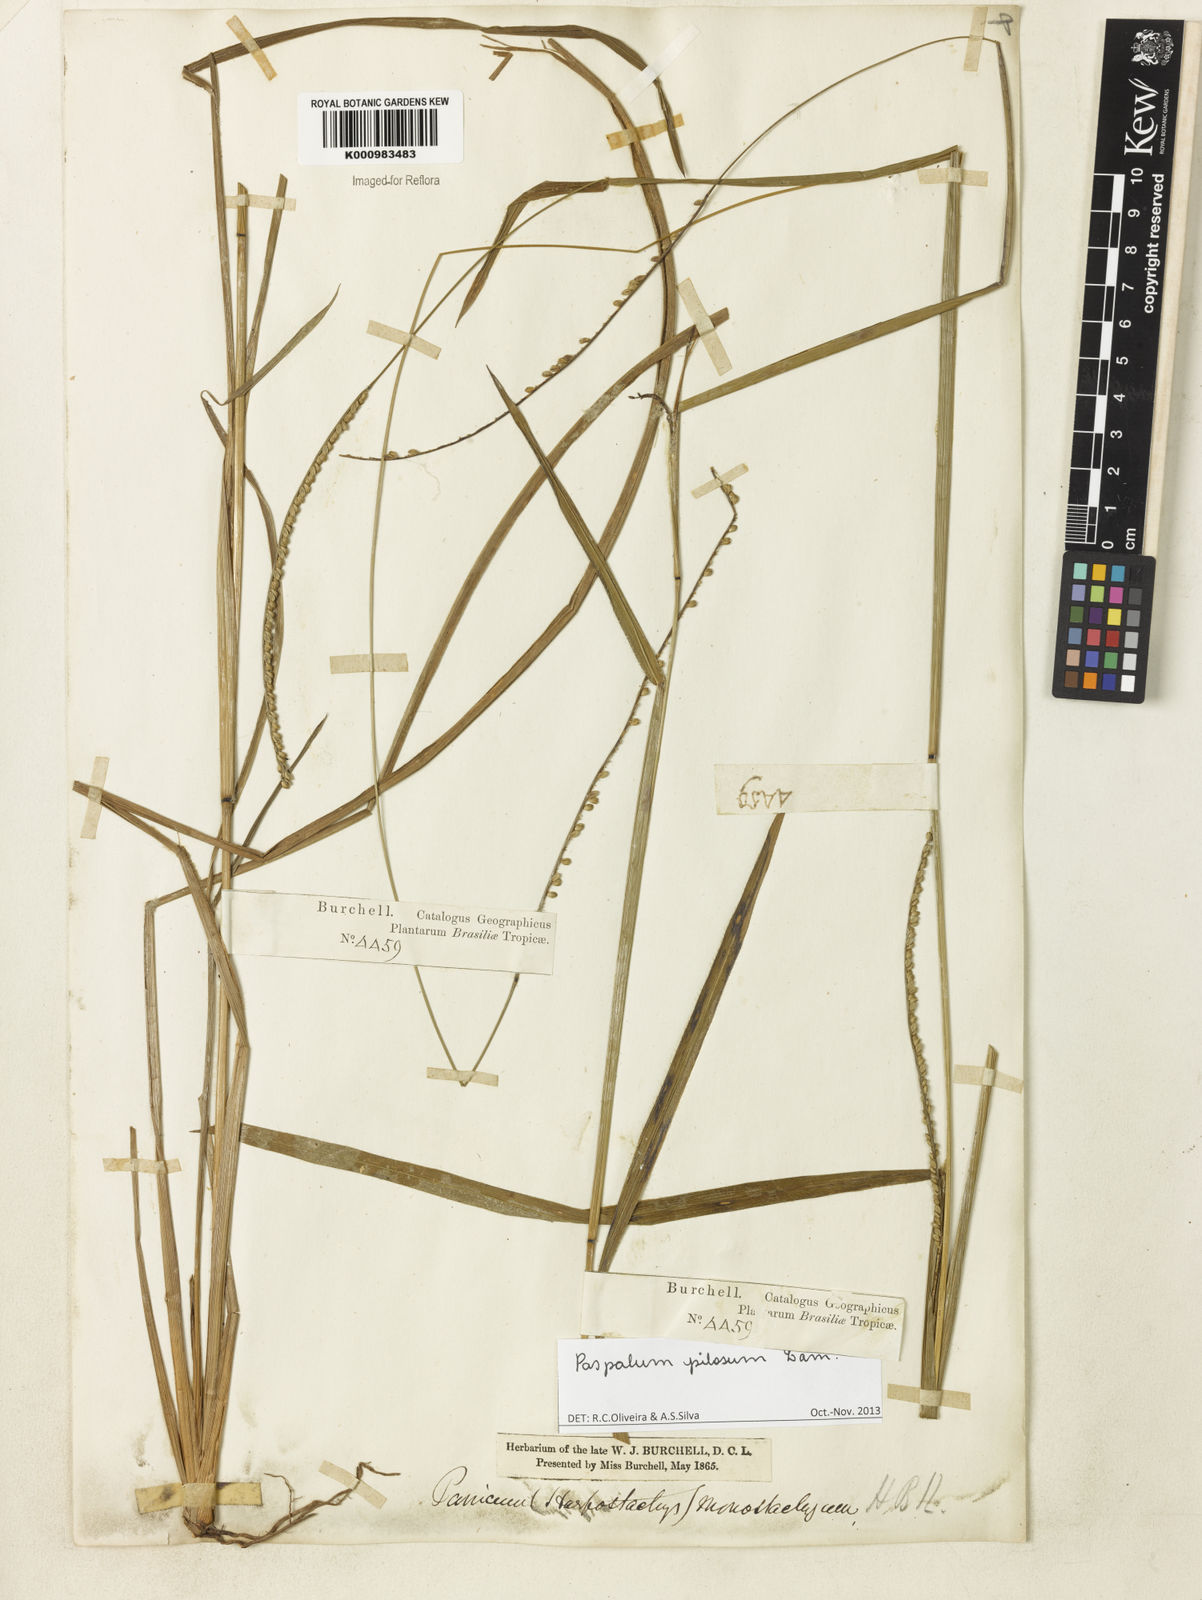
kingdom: Plantae
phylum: Tracheophyta
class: Liliopsida
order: Poales
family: Poaceae
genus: Paspalum
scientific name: Paspalum pilosum
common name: Crowngrass
